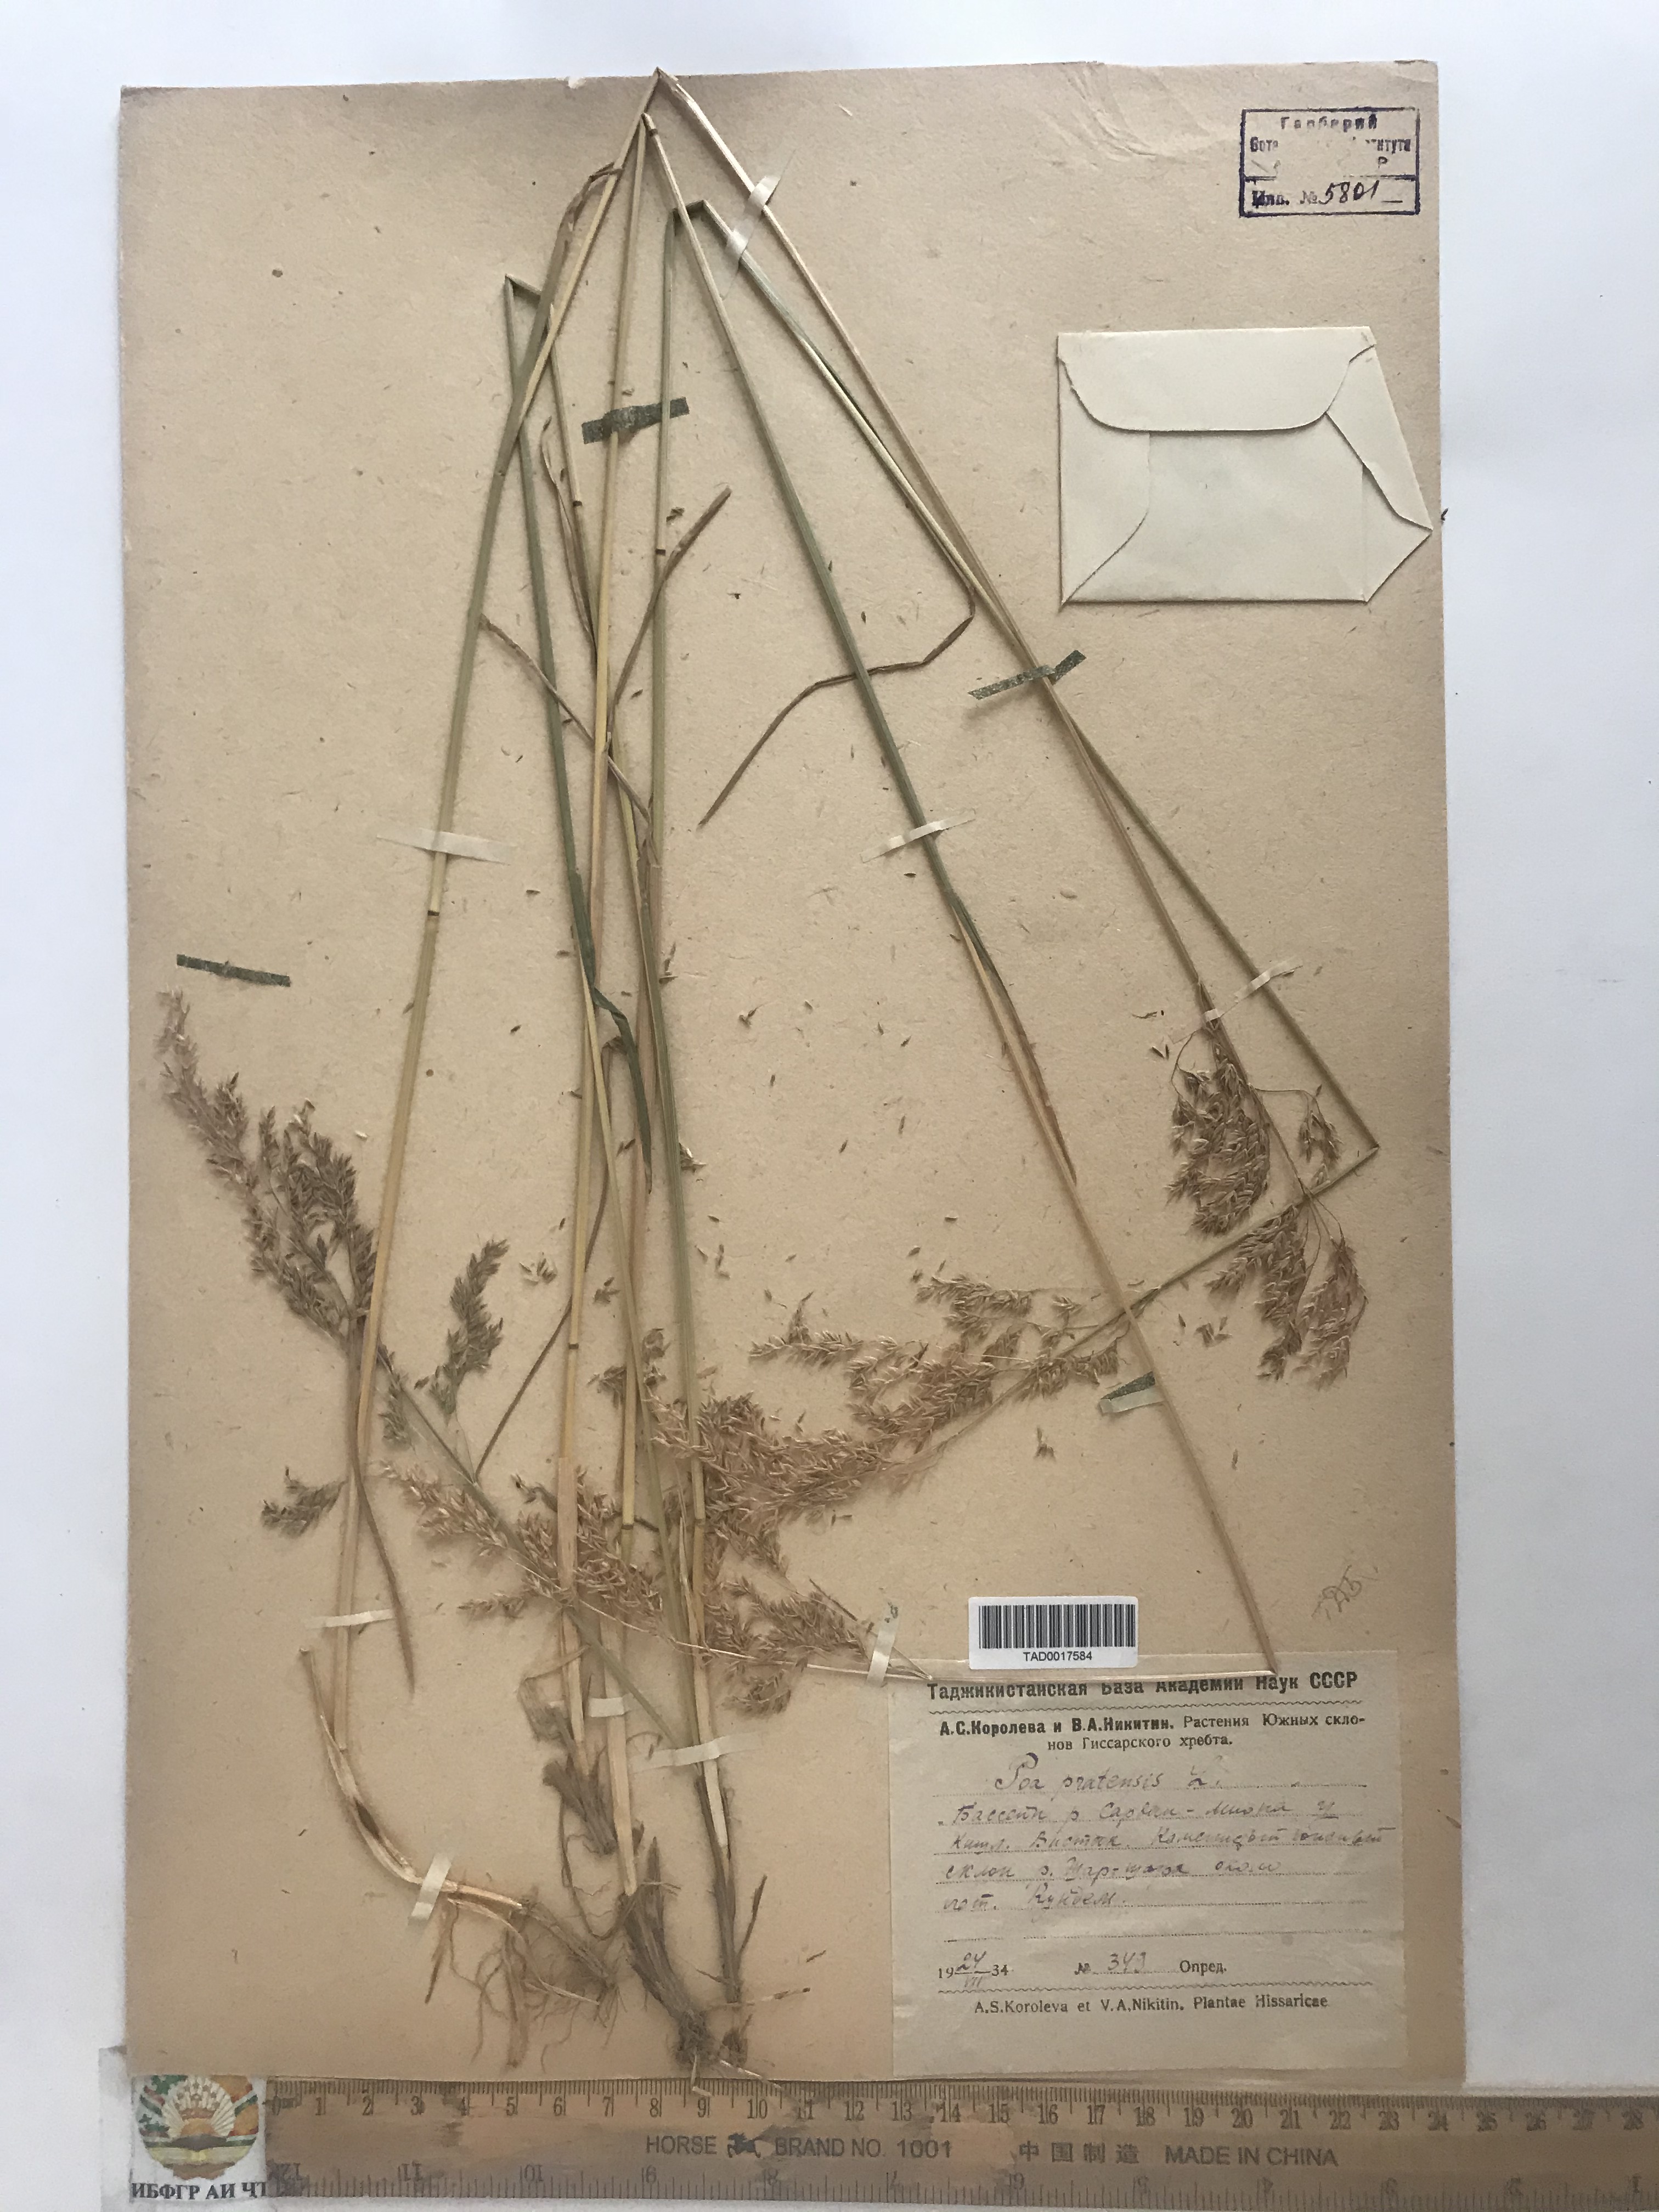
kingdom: Plantae
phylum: Tracheophyta
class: Liliopsida
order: Poales
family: Poaceae
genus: Poa
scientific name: Poa pratensis
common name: Kentucky bluegrass
